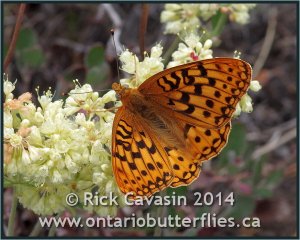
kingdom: Animalia
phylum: Arthropoda
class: Insecta
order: Lepidoptera
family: Nymphalidae
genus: Speyeria
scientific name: Speyeria zerene
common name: Zerene Fritillary
